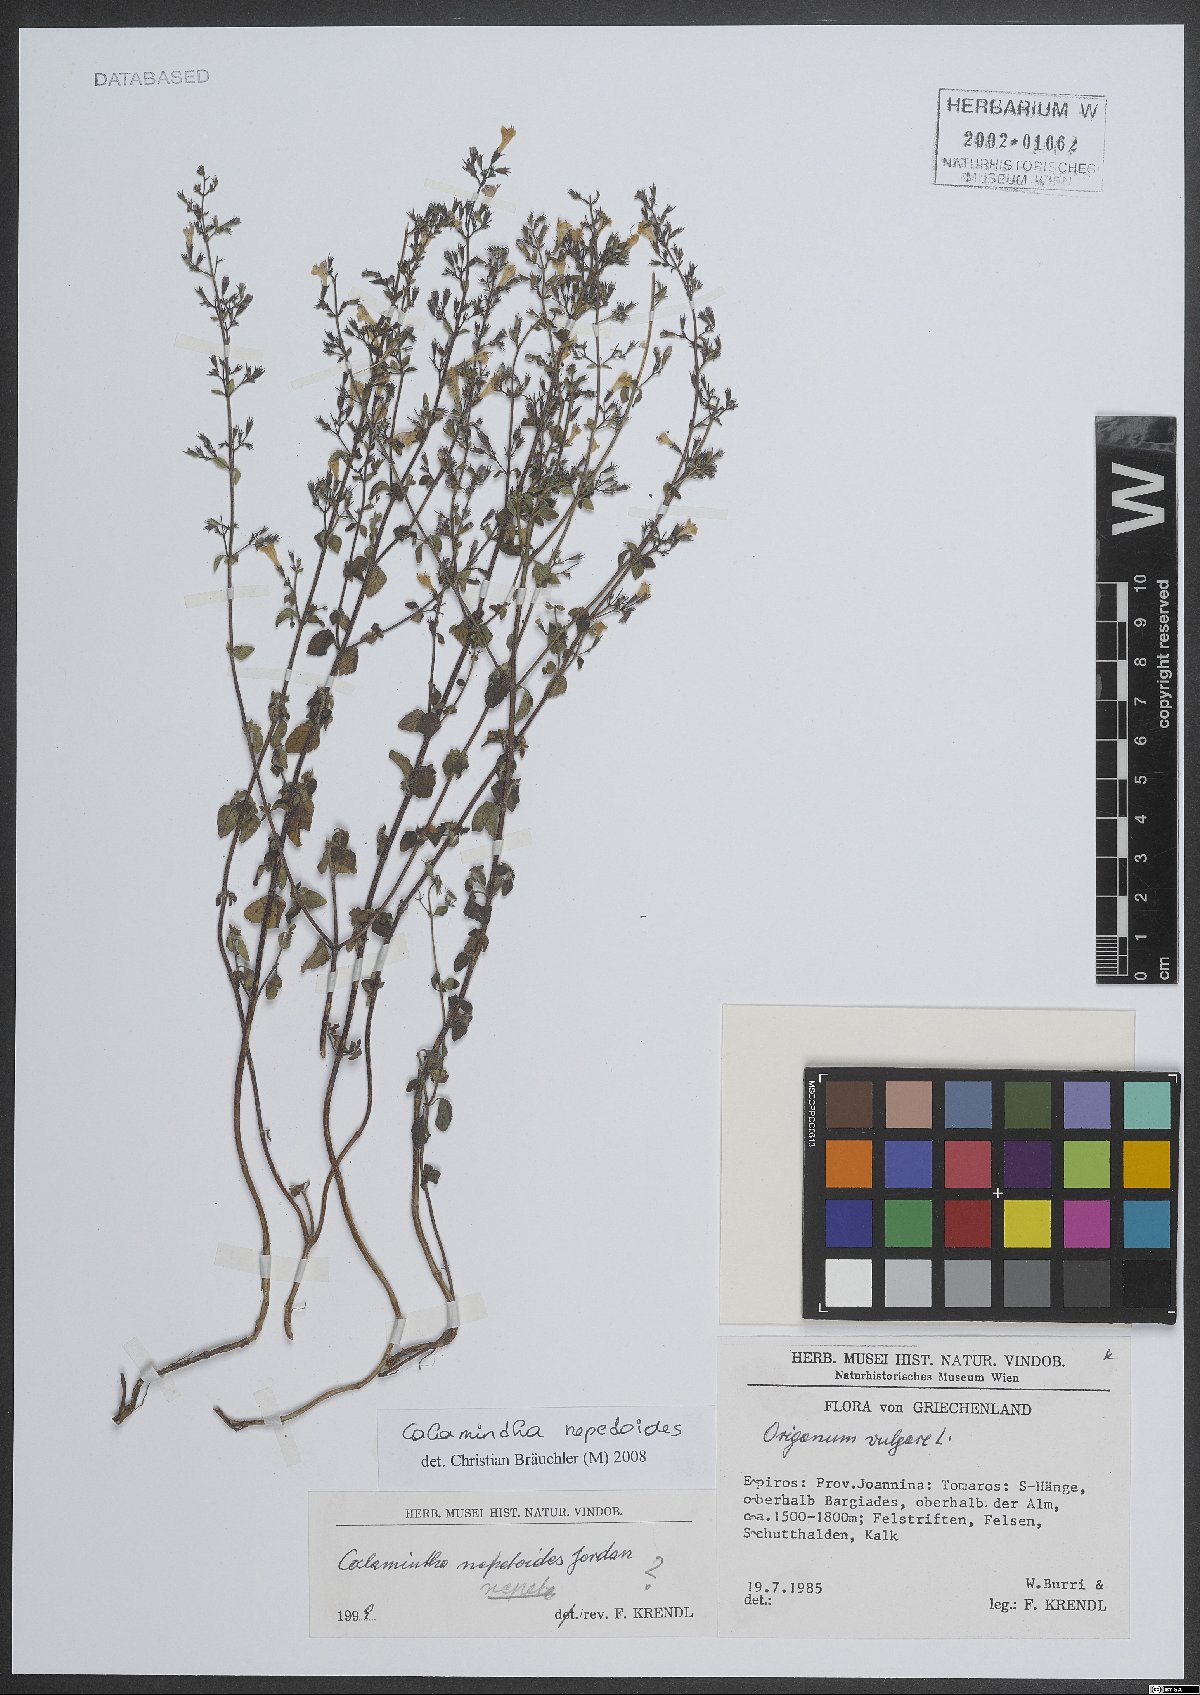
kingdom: Plantae
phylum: Tracheophyta
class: Magnoliopsida
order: Lamiales
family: Lamiaceae
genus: Clinopodium
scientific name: Clinopodium nepeta
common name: Lesser calamint
